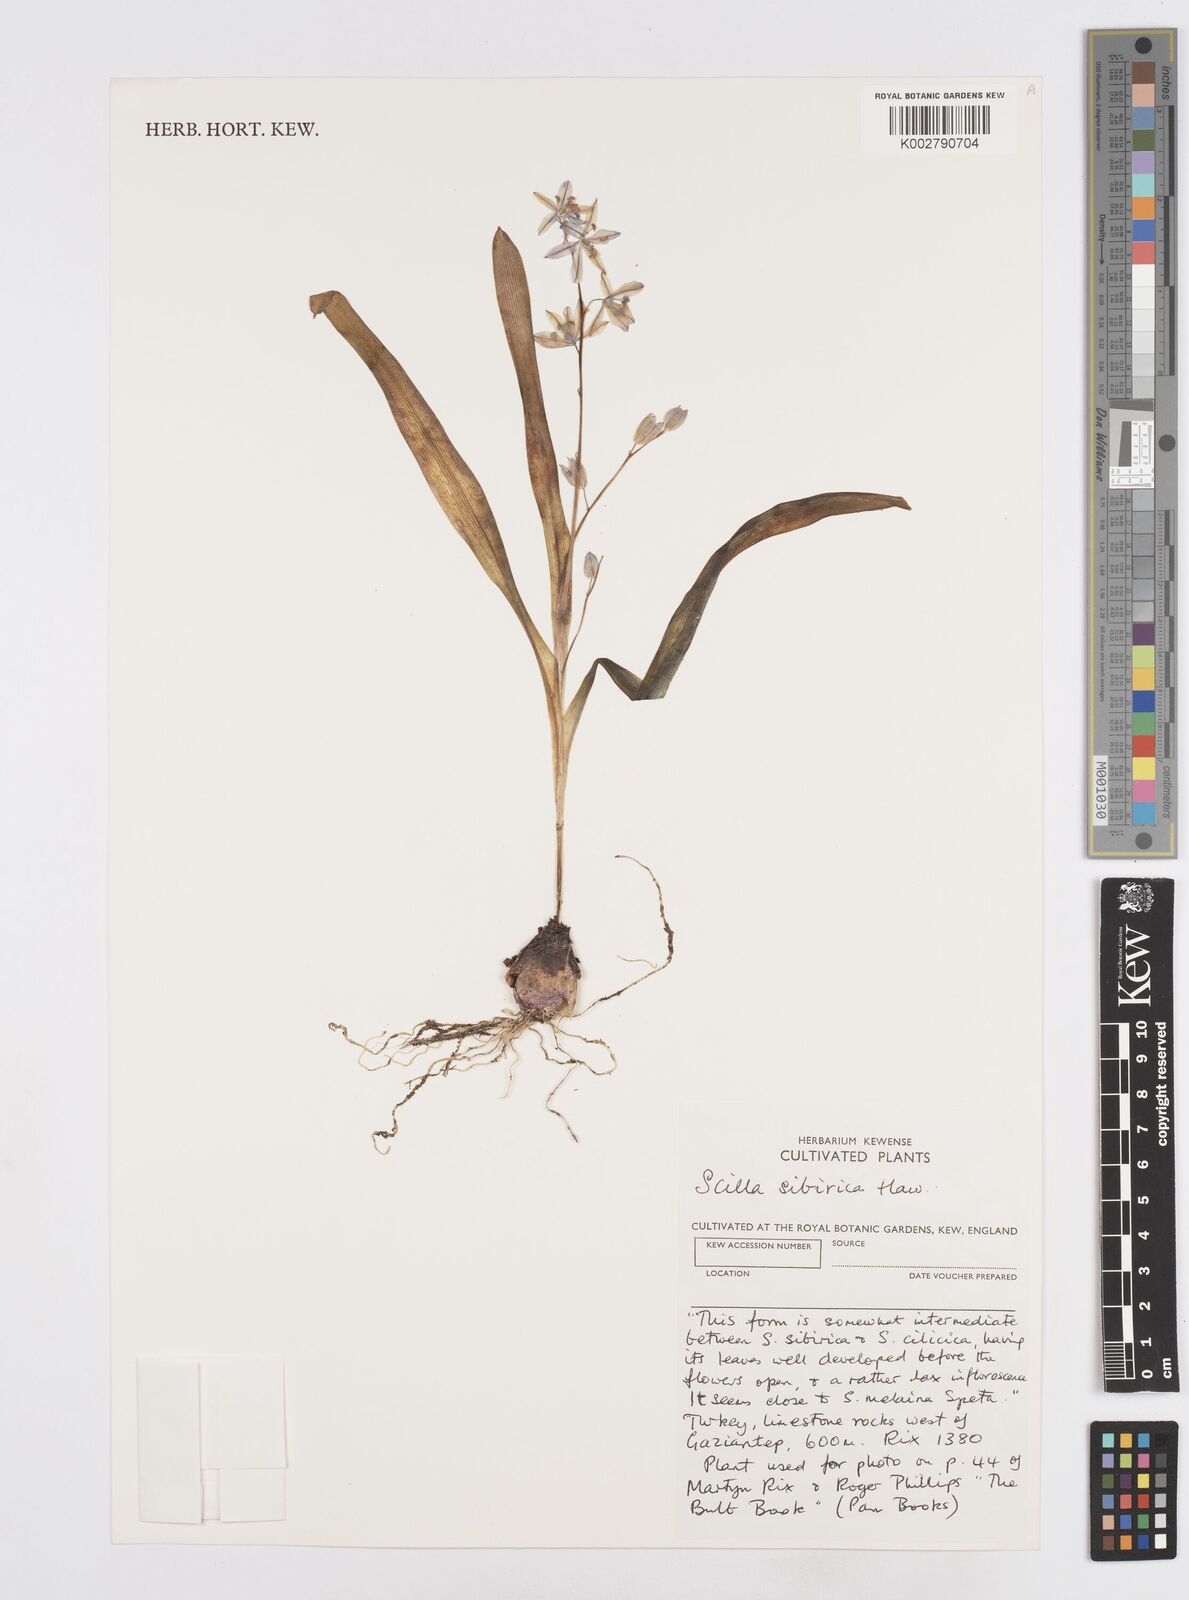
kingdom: Plantae
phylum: Tracheophyta
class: Liliopsida
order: Asparagales
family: Asparagaceae
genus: Scilla
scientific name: Scilla siberica
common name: Siberian squill
